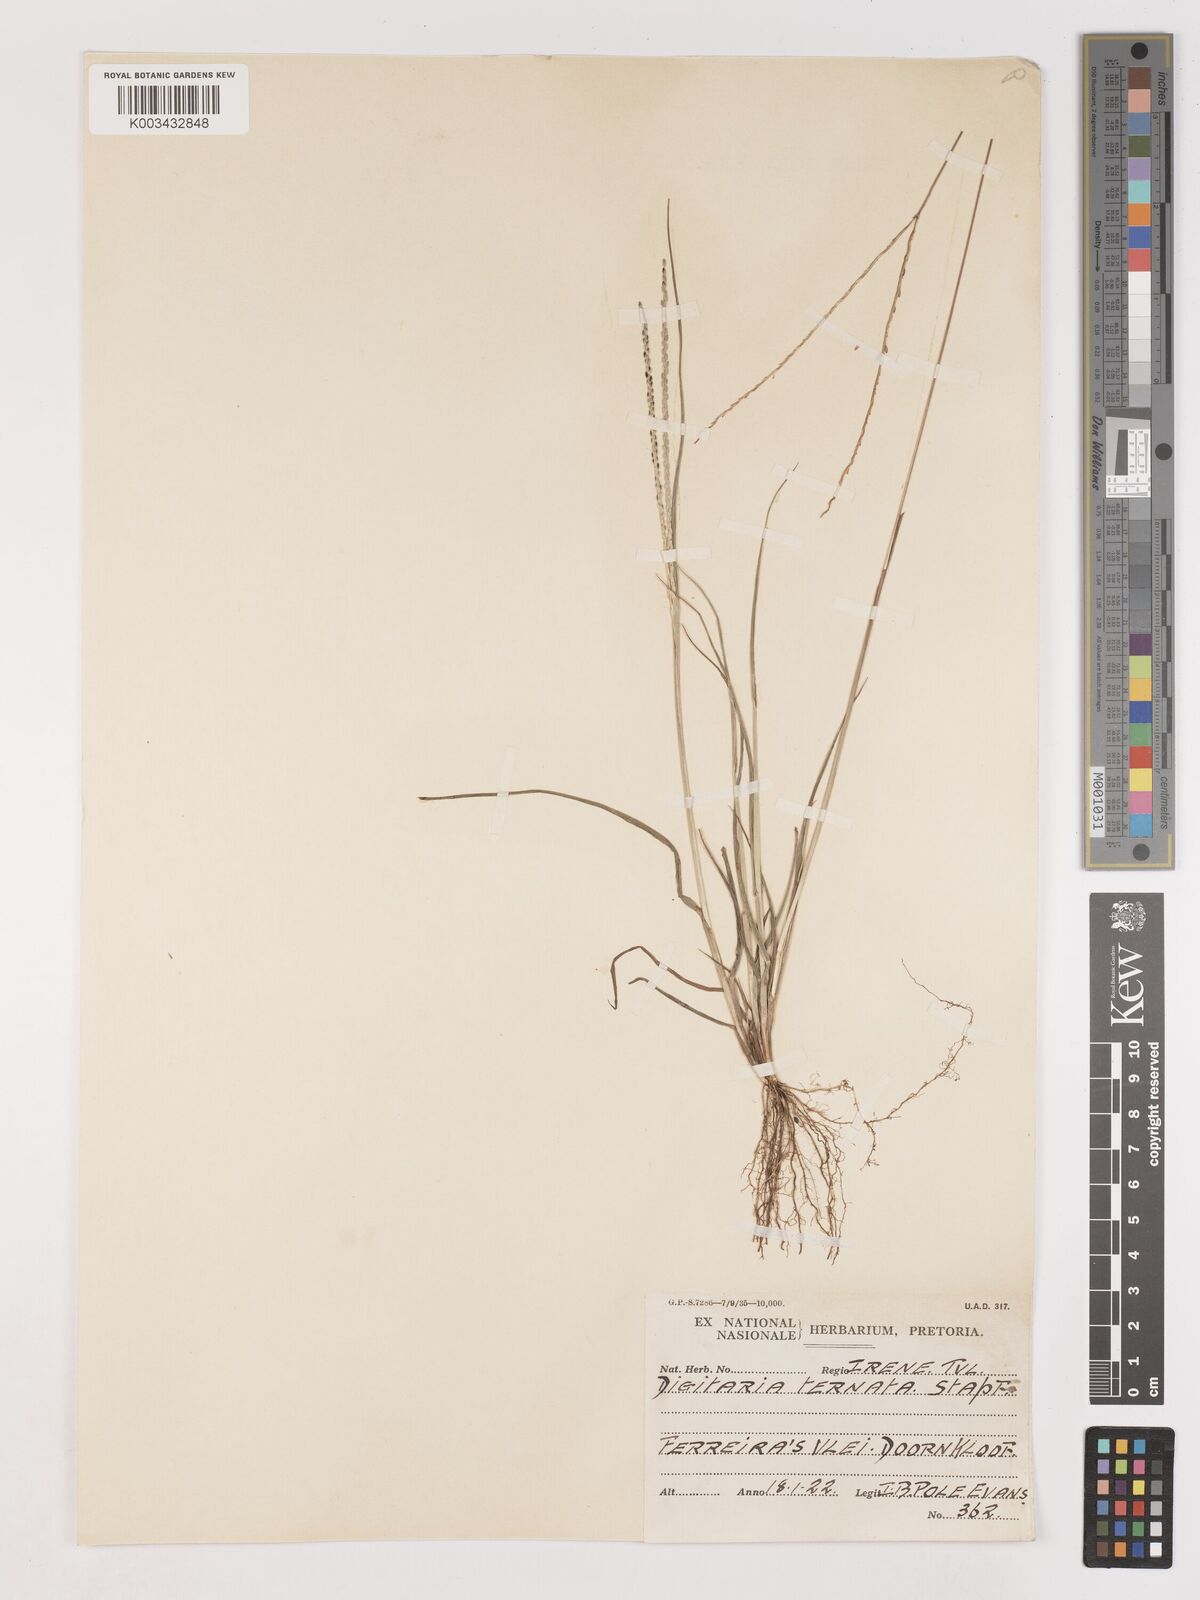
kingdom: Plantae
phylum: Tracheophyta
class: Liliopsida
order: Poales
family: Poaceae
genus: Digitaria
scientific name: Digitaria ternata
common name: Blackseed crabgrass
